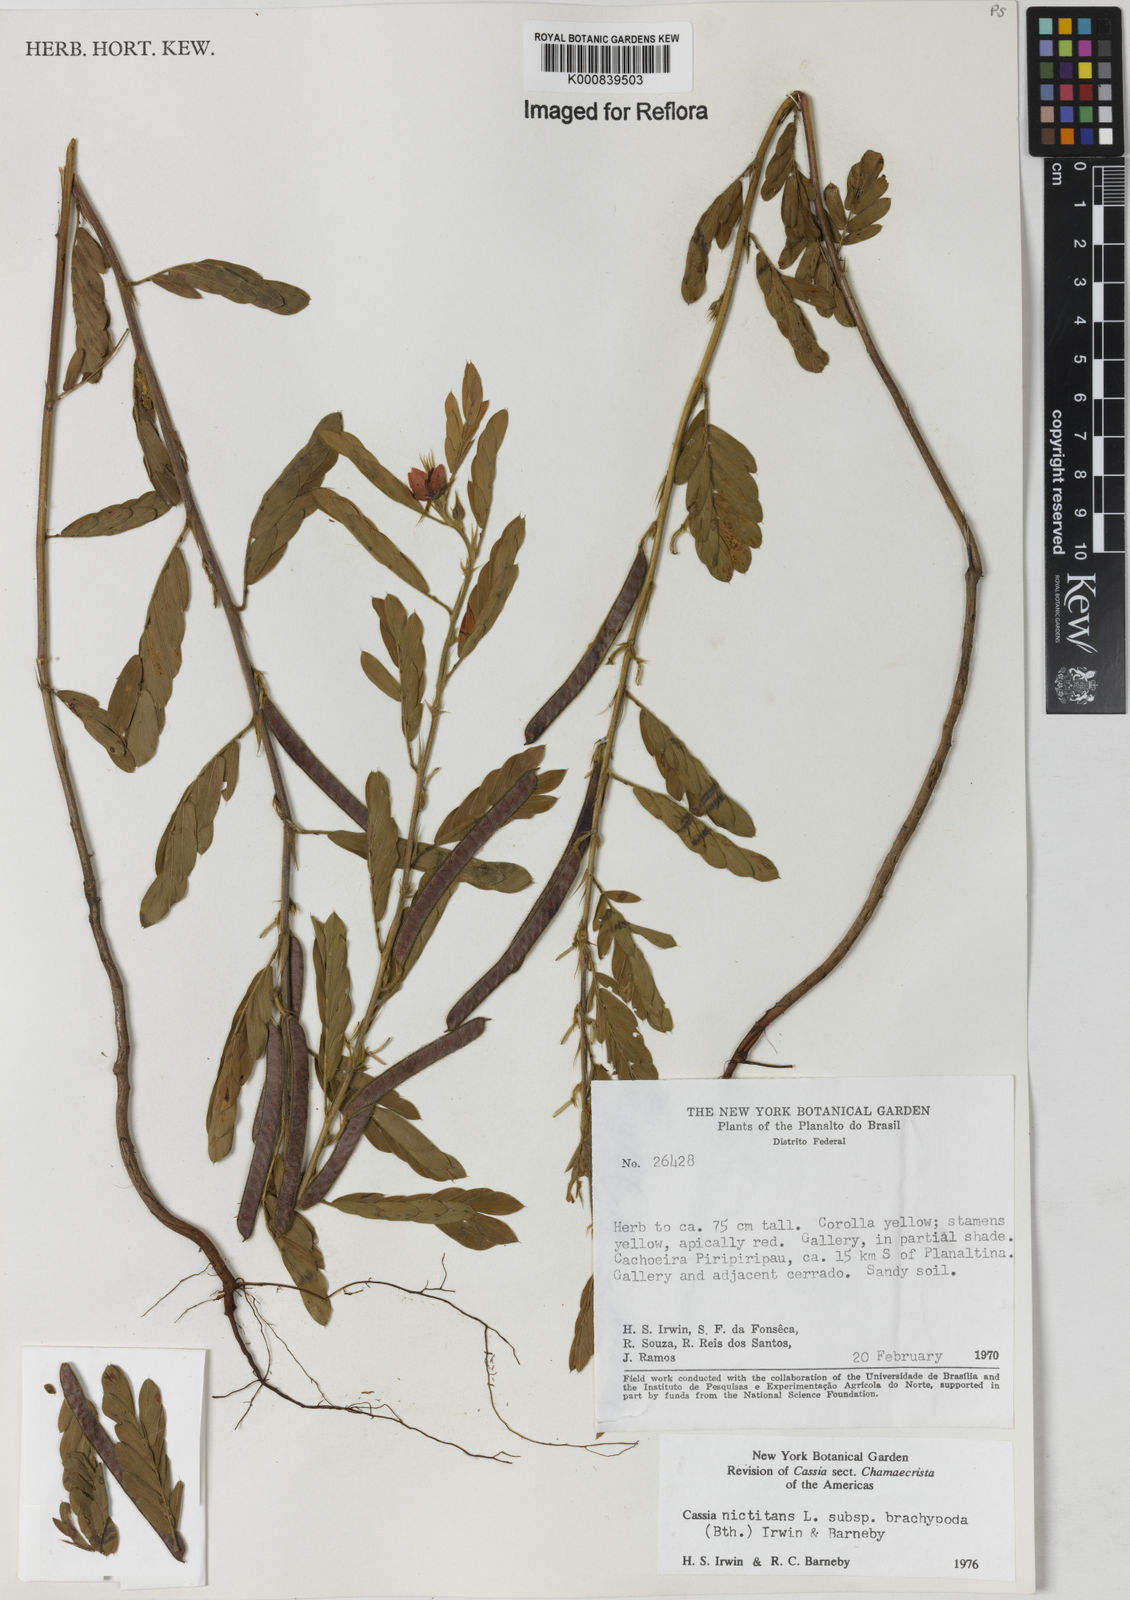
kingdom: Plantae
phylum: Tracheophyta
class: Magnoliopsida
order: Fabales
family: Fabaceae
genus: Chamaecrista
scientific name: Chamaecrista nictitans
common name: Sensitive cassia
